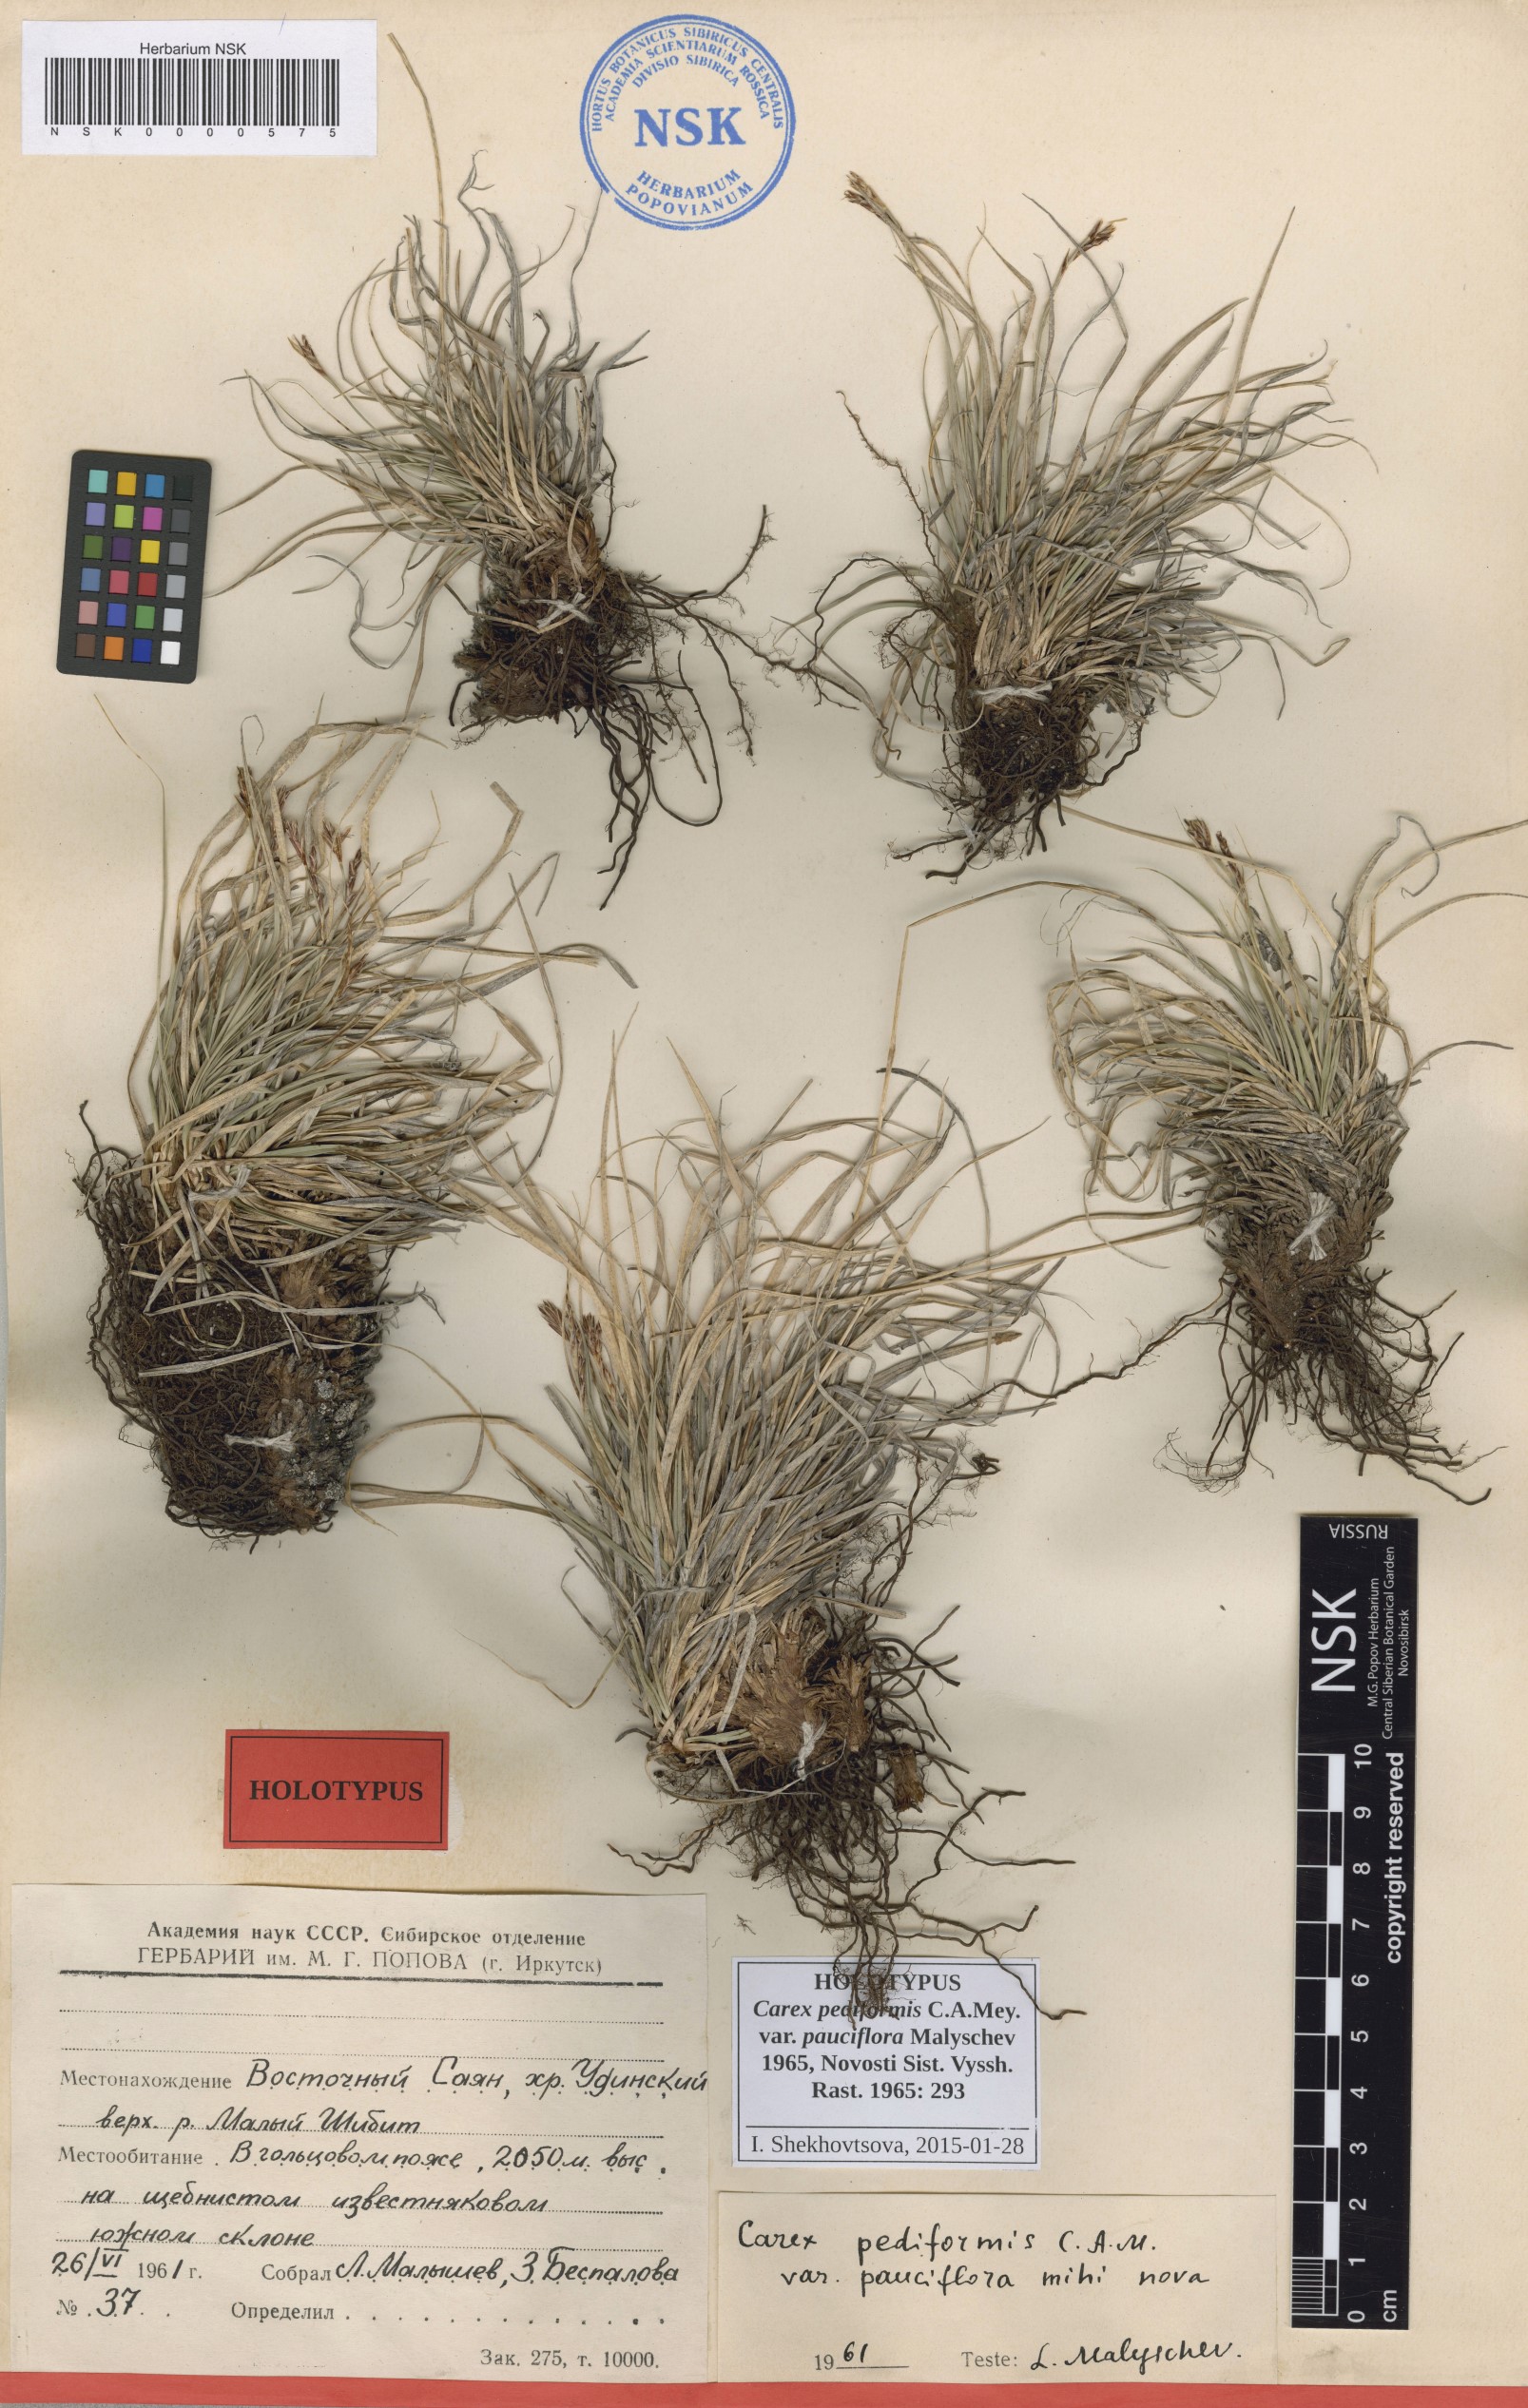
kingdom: Plantae
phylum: Tracheophyta
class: Liliopsida
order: Poales
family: Cyperaceae
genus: Carex
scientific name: Carex pediformis
